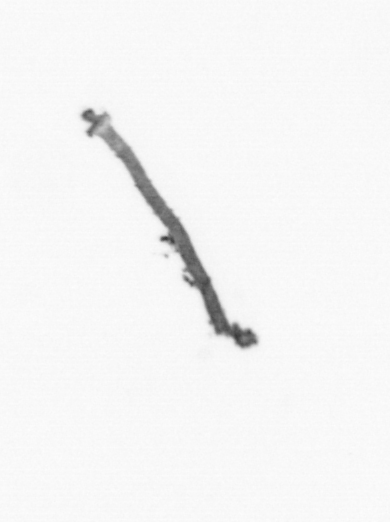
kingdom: Chromista
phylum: Ochrophyta
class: Bacillariophyceae
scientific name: Bacillariophyceae
